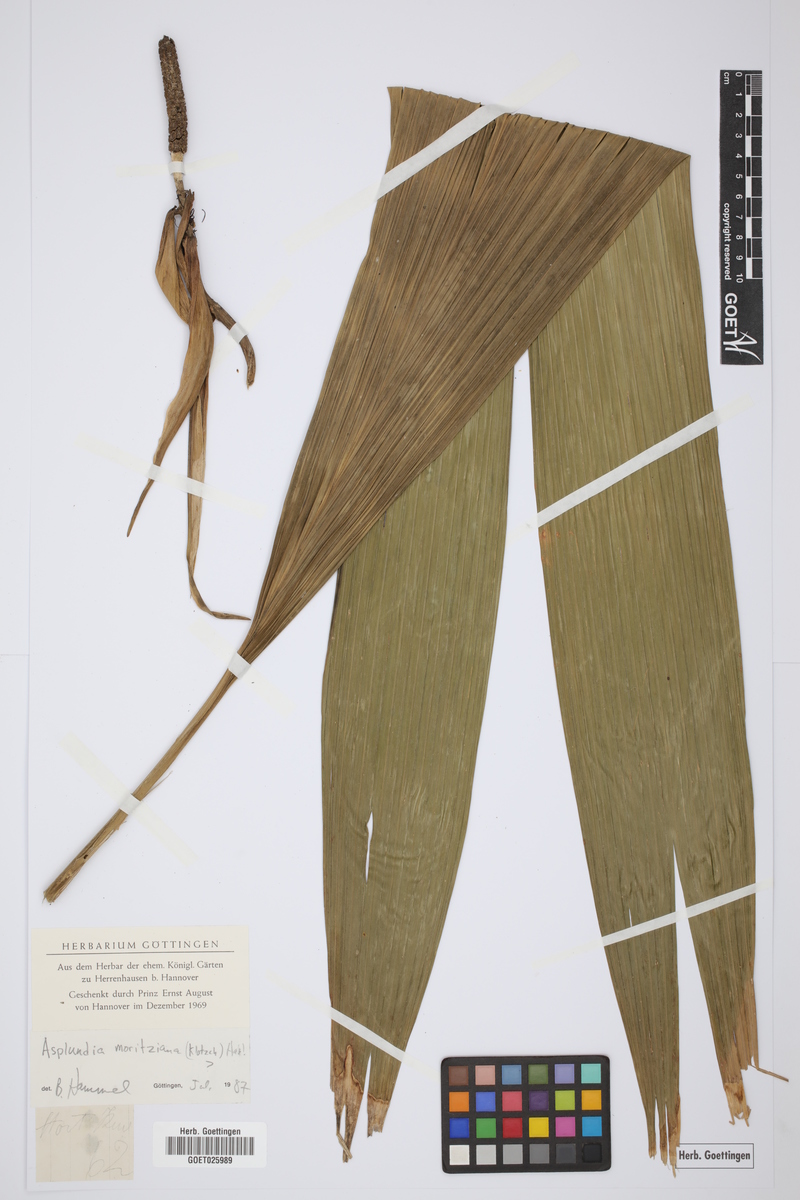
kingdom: Plantae
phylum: Tracheophyta
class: Liliopsida
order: Pandanales
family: Cyclanthaceae
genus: Asplundia
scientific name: Asplundia moritziana
